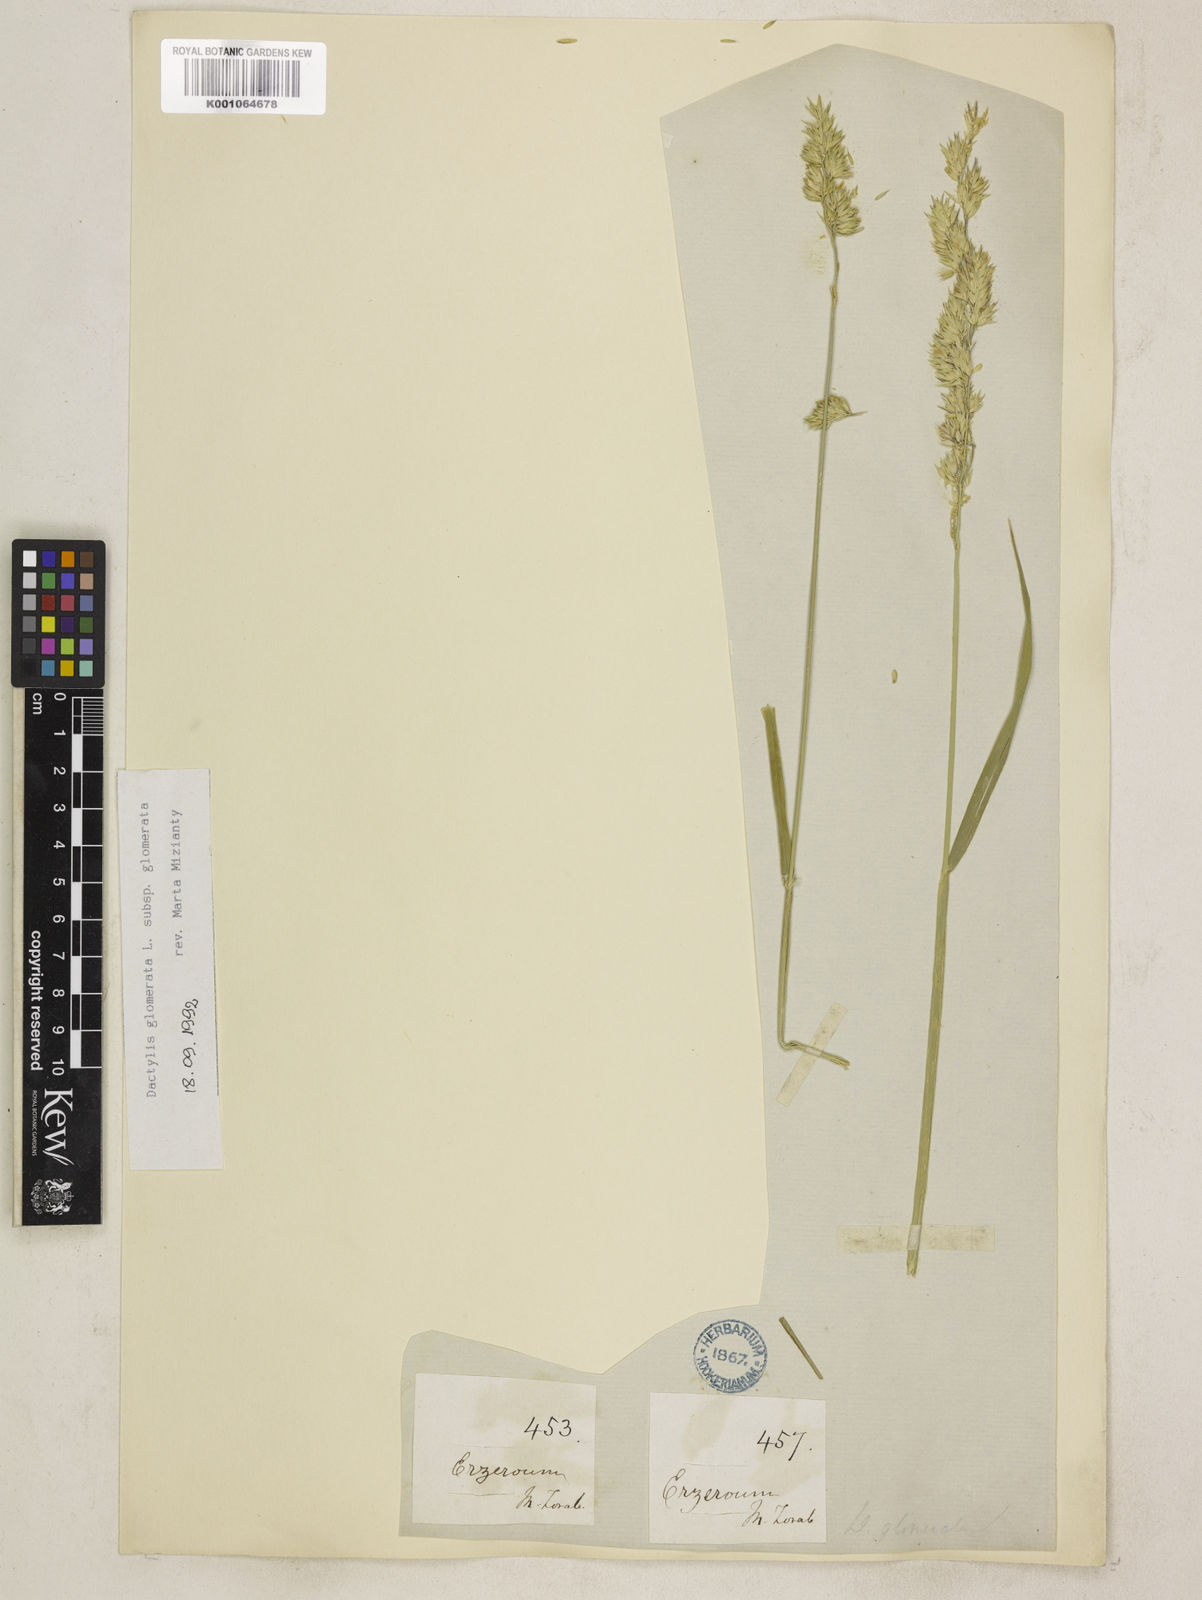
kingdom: Plantae
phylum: Tracheophyta
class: Liliopsida
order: Poales
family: Poaceae
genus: Dactylis
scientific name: Dactylis glomerata
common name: Orchardgrass
